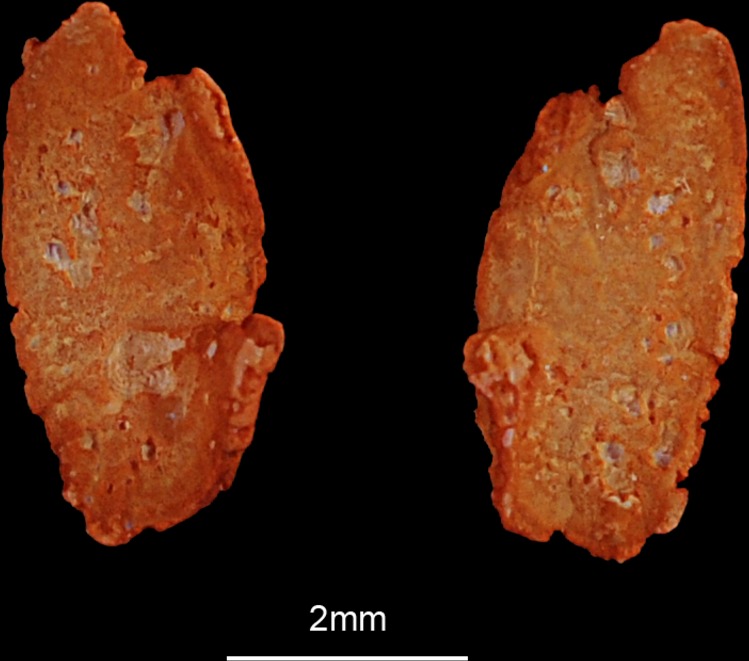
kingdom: Animalia
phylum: Chordata
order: Perciformes
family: Nemipteridae
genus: Scolopsis
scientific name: Scolopsis
